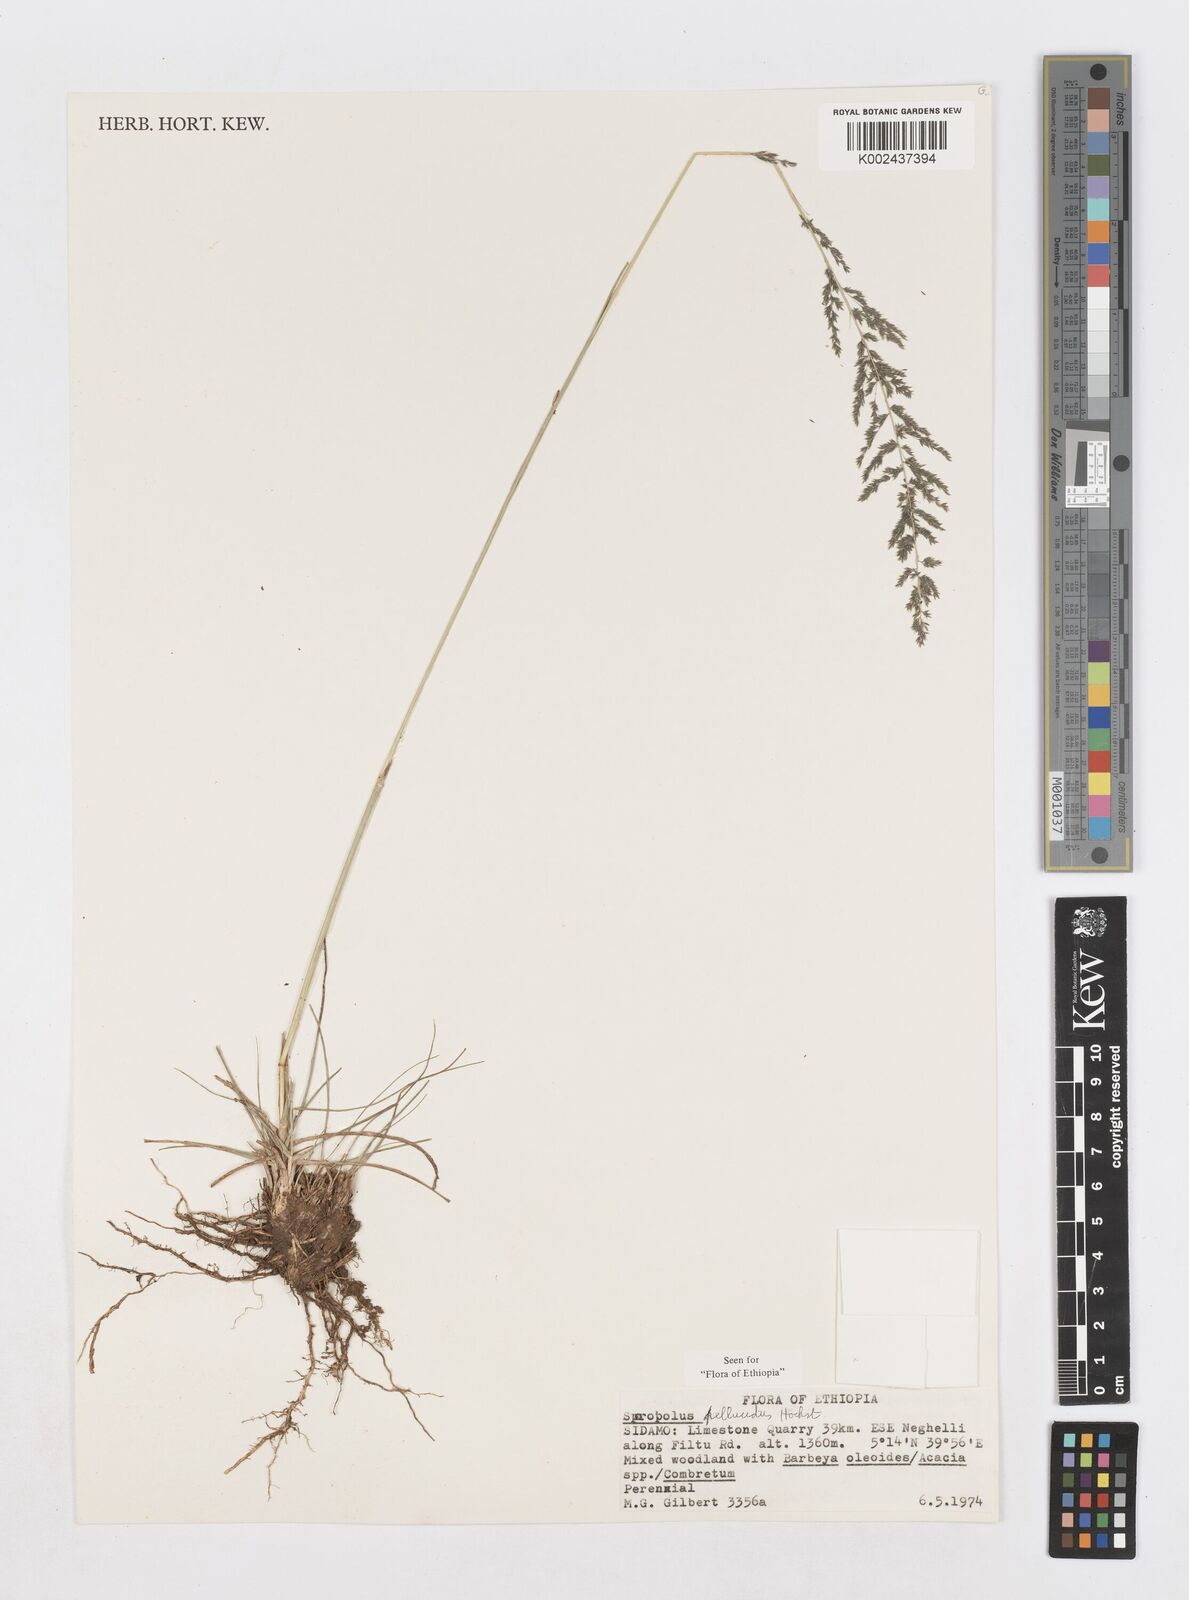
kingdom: Plantae
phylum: Tracheophyta
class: Liliopsida
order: Poales
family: Poaceae
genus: Sporobolus
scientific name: Sporobolus pellucidus
